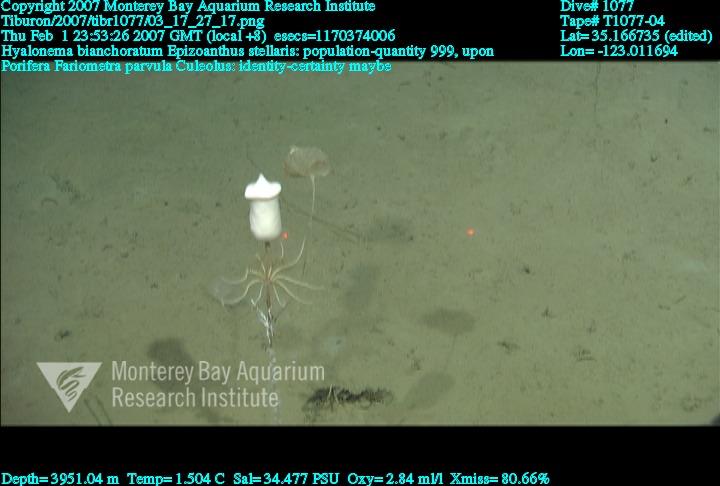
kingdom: Animalia
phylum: Porifera
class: Hexactinellida
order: Amphidiscosida
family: Hyalonematidae
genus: Hyalonema
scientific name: Hyalonema bianchoratum
